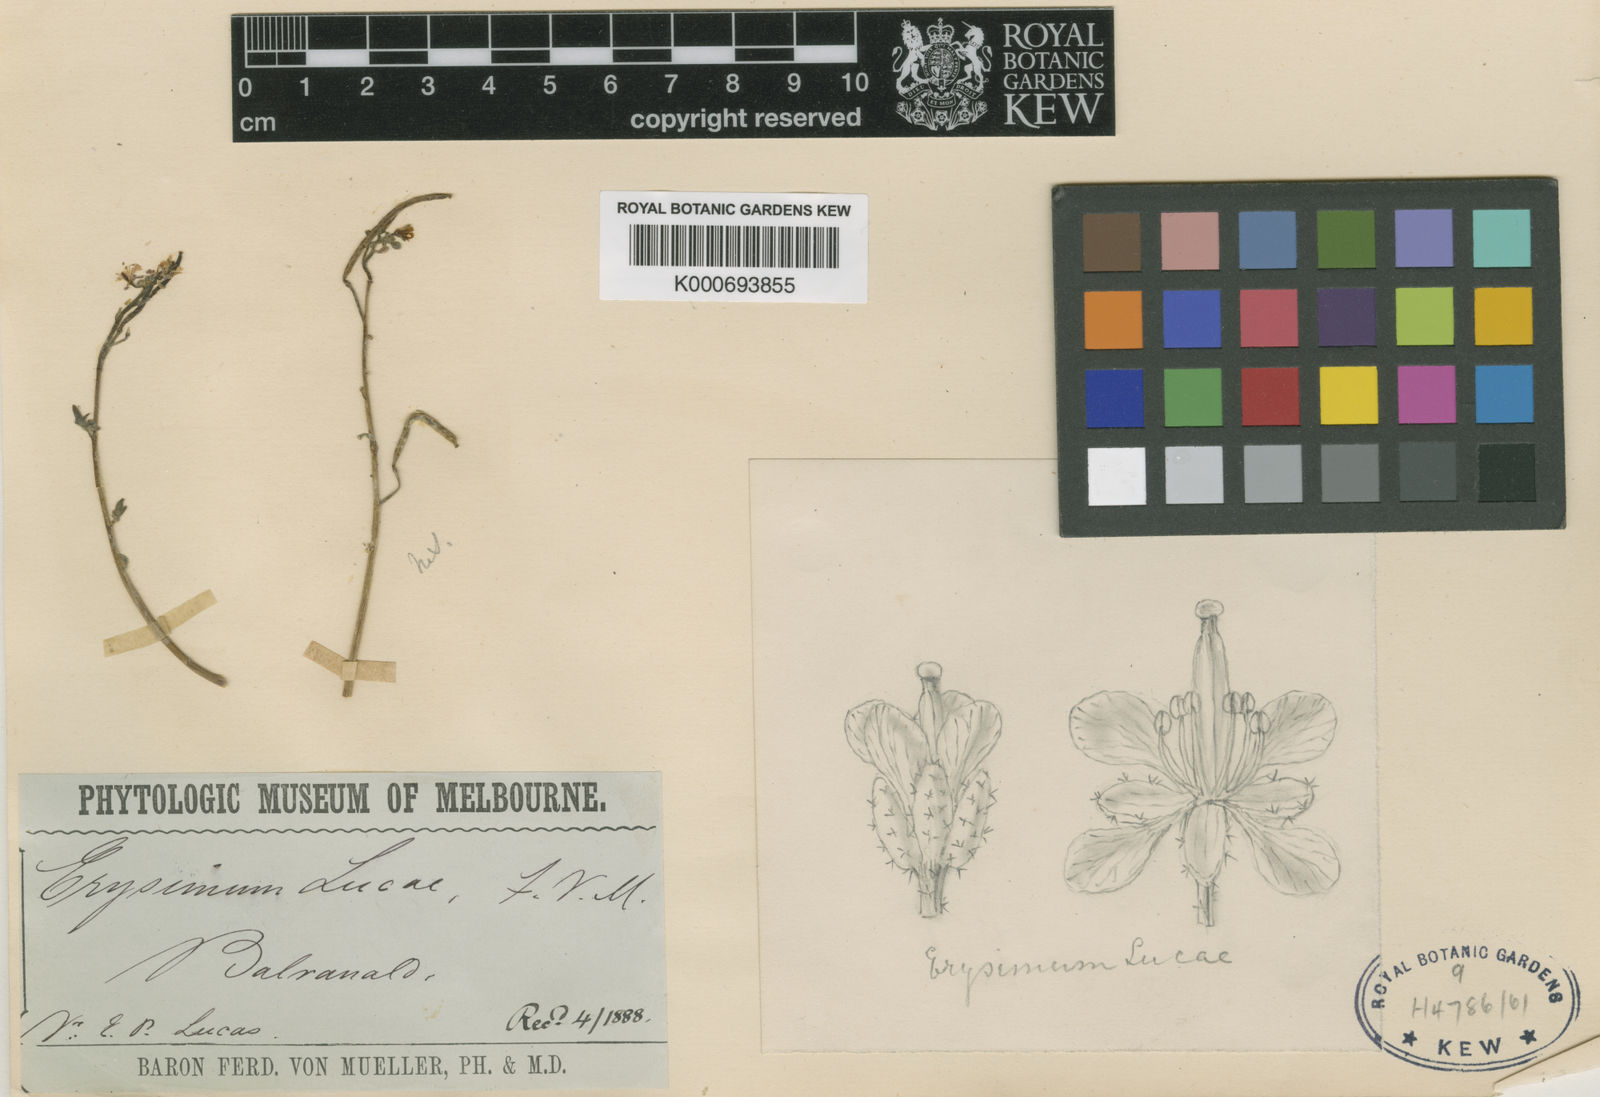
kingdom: Plantae
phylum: Tracheophyta
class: Magnoliopsida
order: Brassicales
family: Brassicaceae
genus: Erysimum
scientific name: Erysimum
